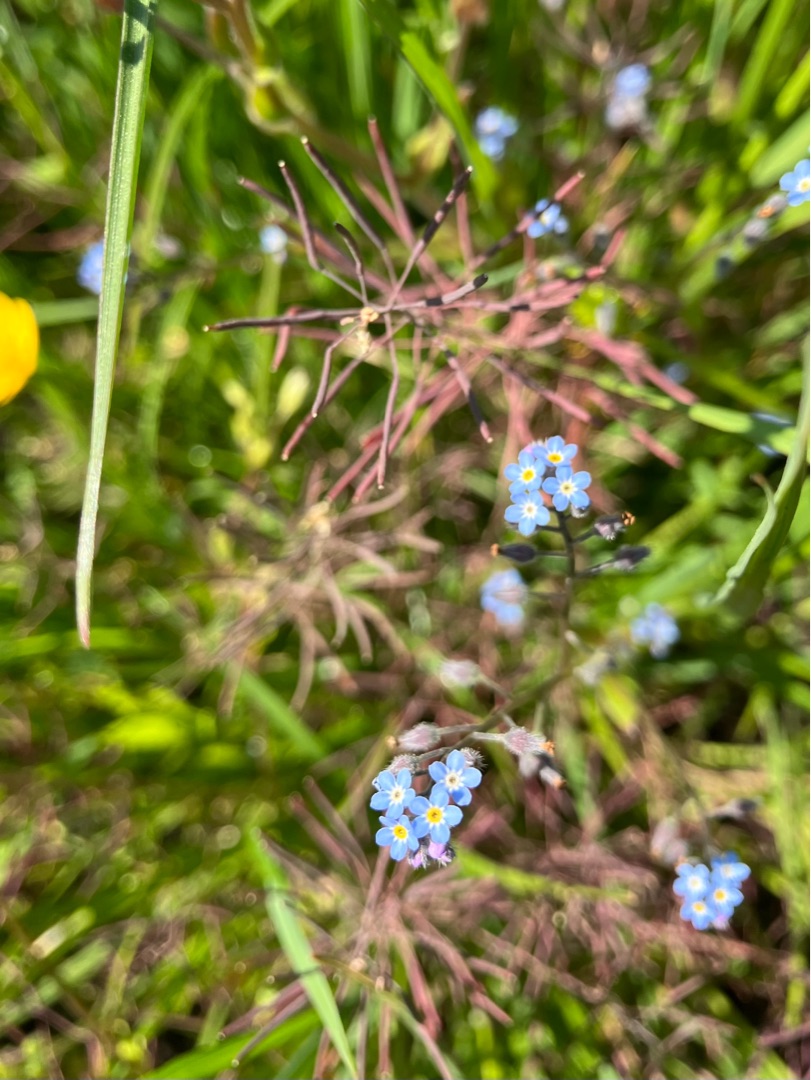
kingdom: Plantae
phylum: Tracheophyta
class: Magnoliopsida
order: Boraginales
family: Boraginaceae
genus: Myosotis
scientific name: Myosotis scorpioides
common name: Eng-forglemmigej
